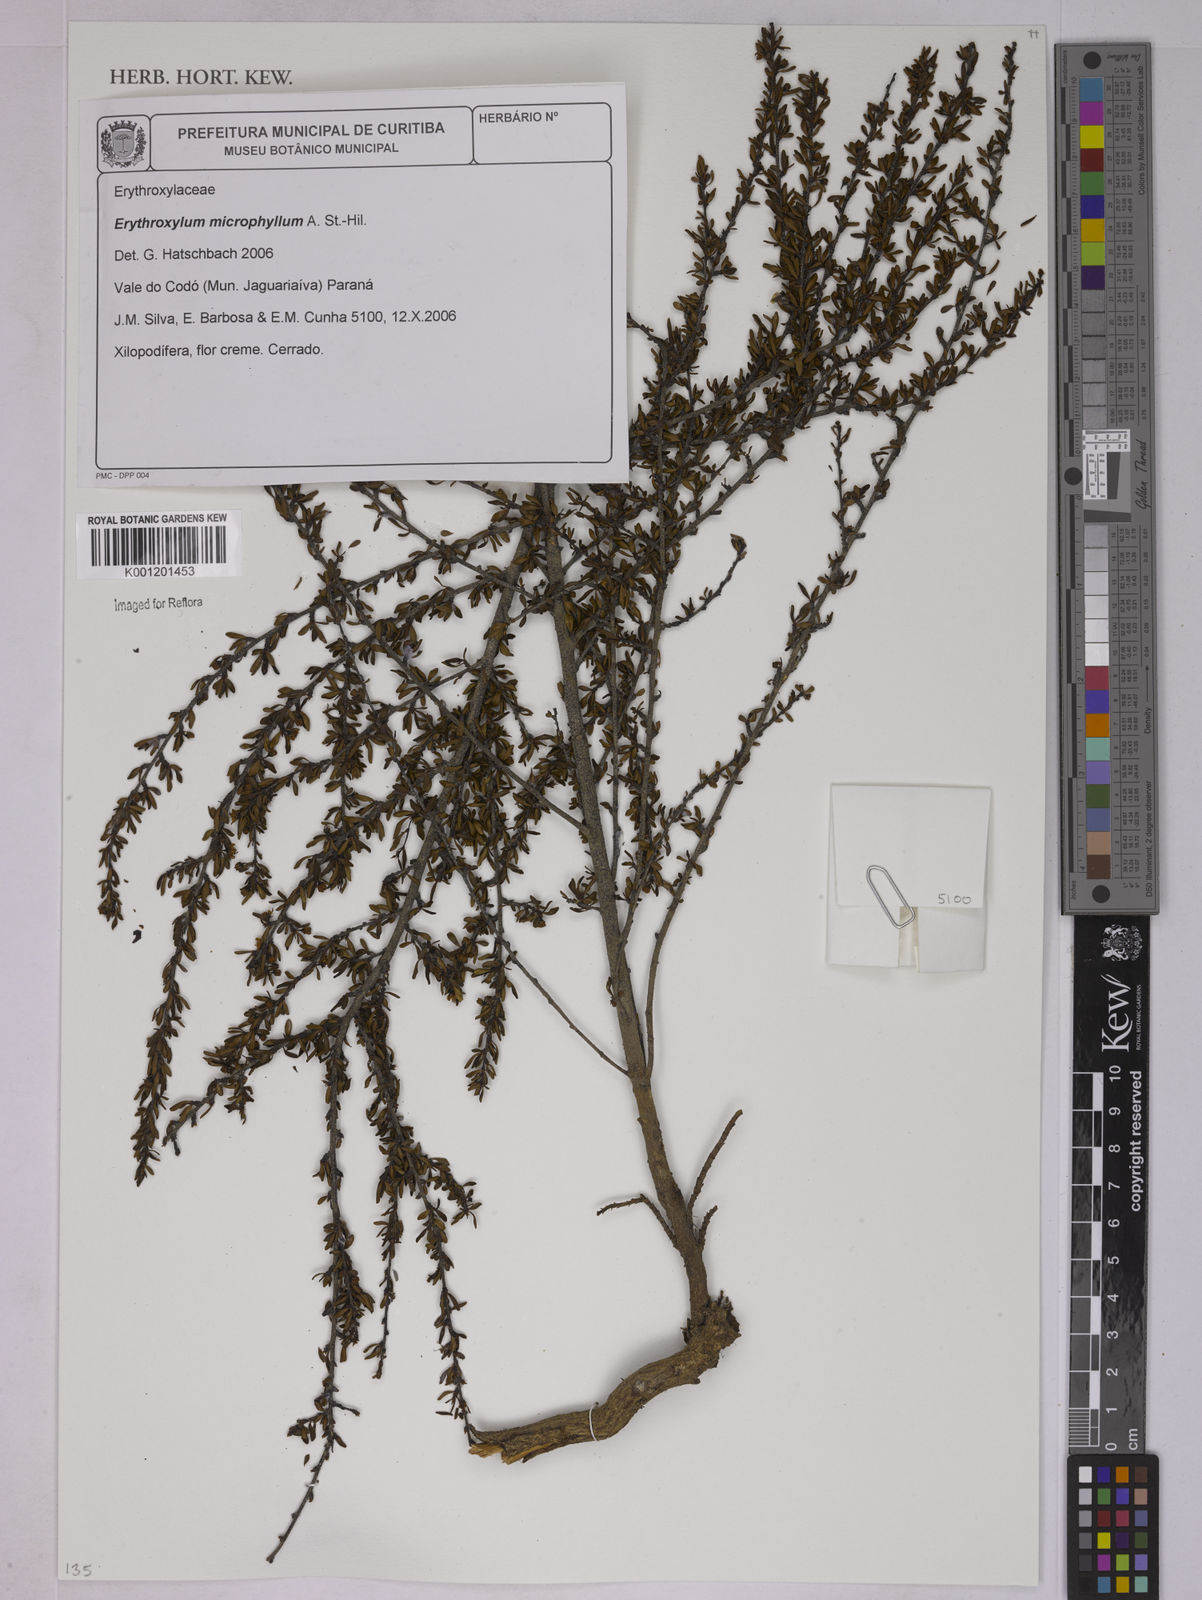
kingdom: Plantae
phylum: Tracheophyta
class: Magnoliopsida
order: Malpighiales
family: Erythroxylaceae
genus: Erythroxylum
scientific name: Erythroxylum microphyllum
